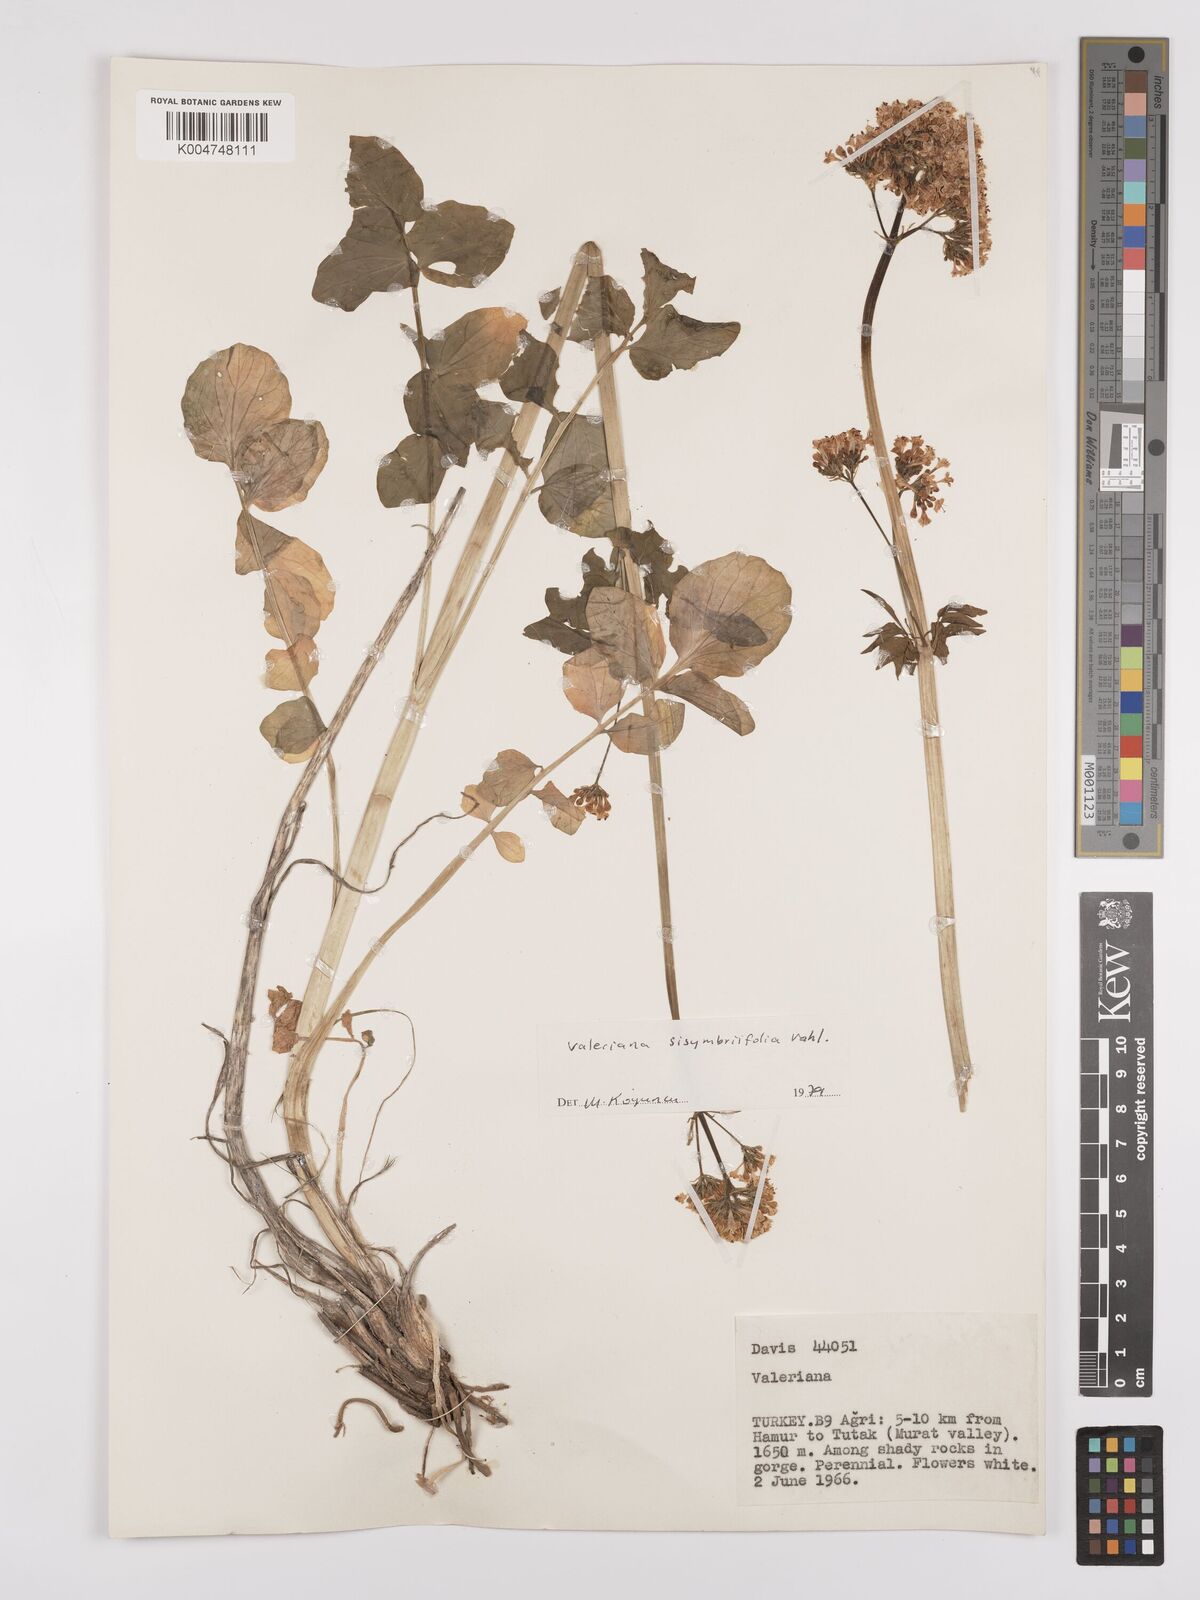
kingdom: Plantae
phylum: Tracheophyta
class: Magnoliopsida
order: Dipsacales
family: Caprifoliaceae
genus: Valeriana
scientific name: Valeriana
